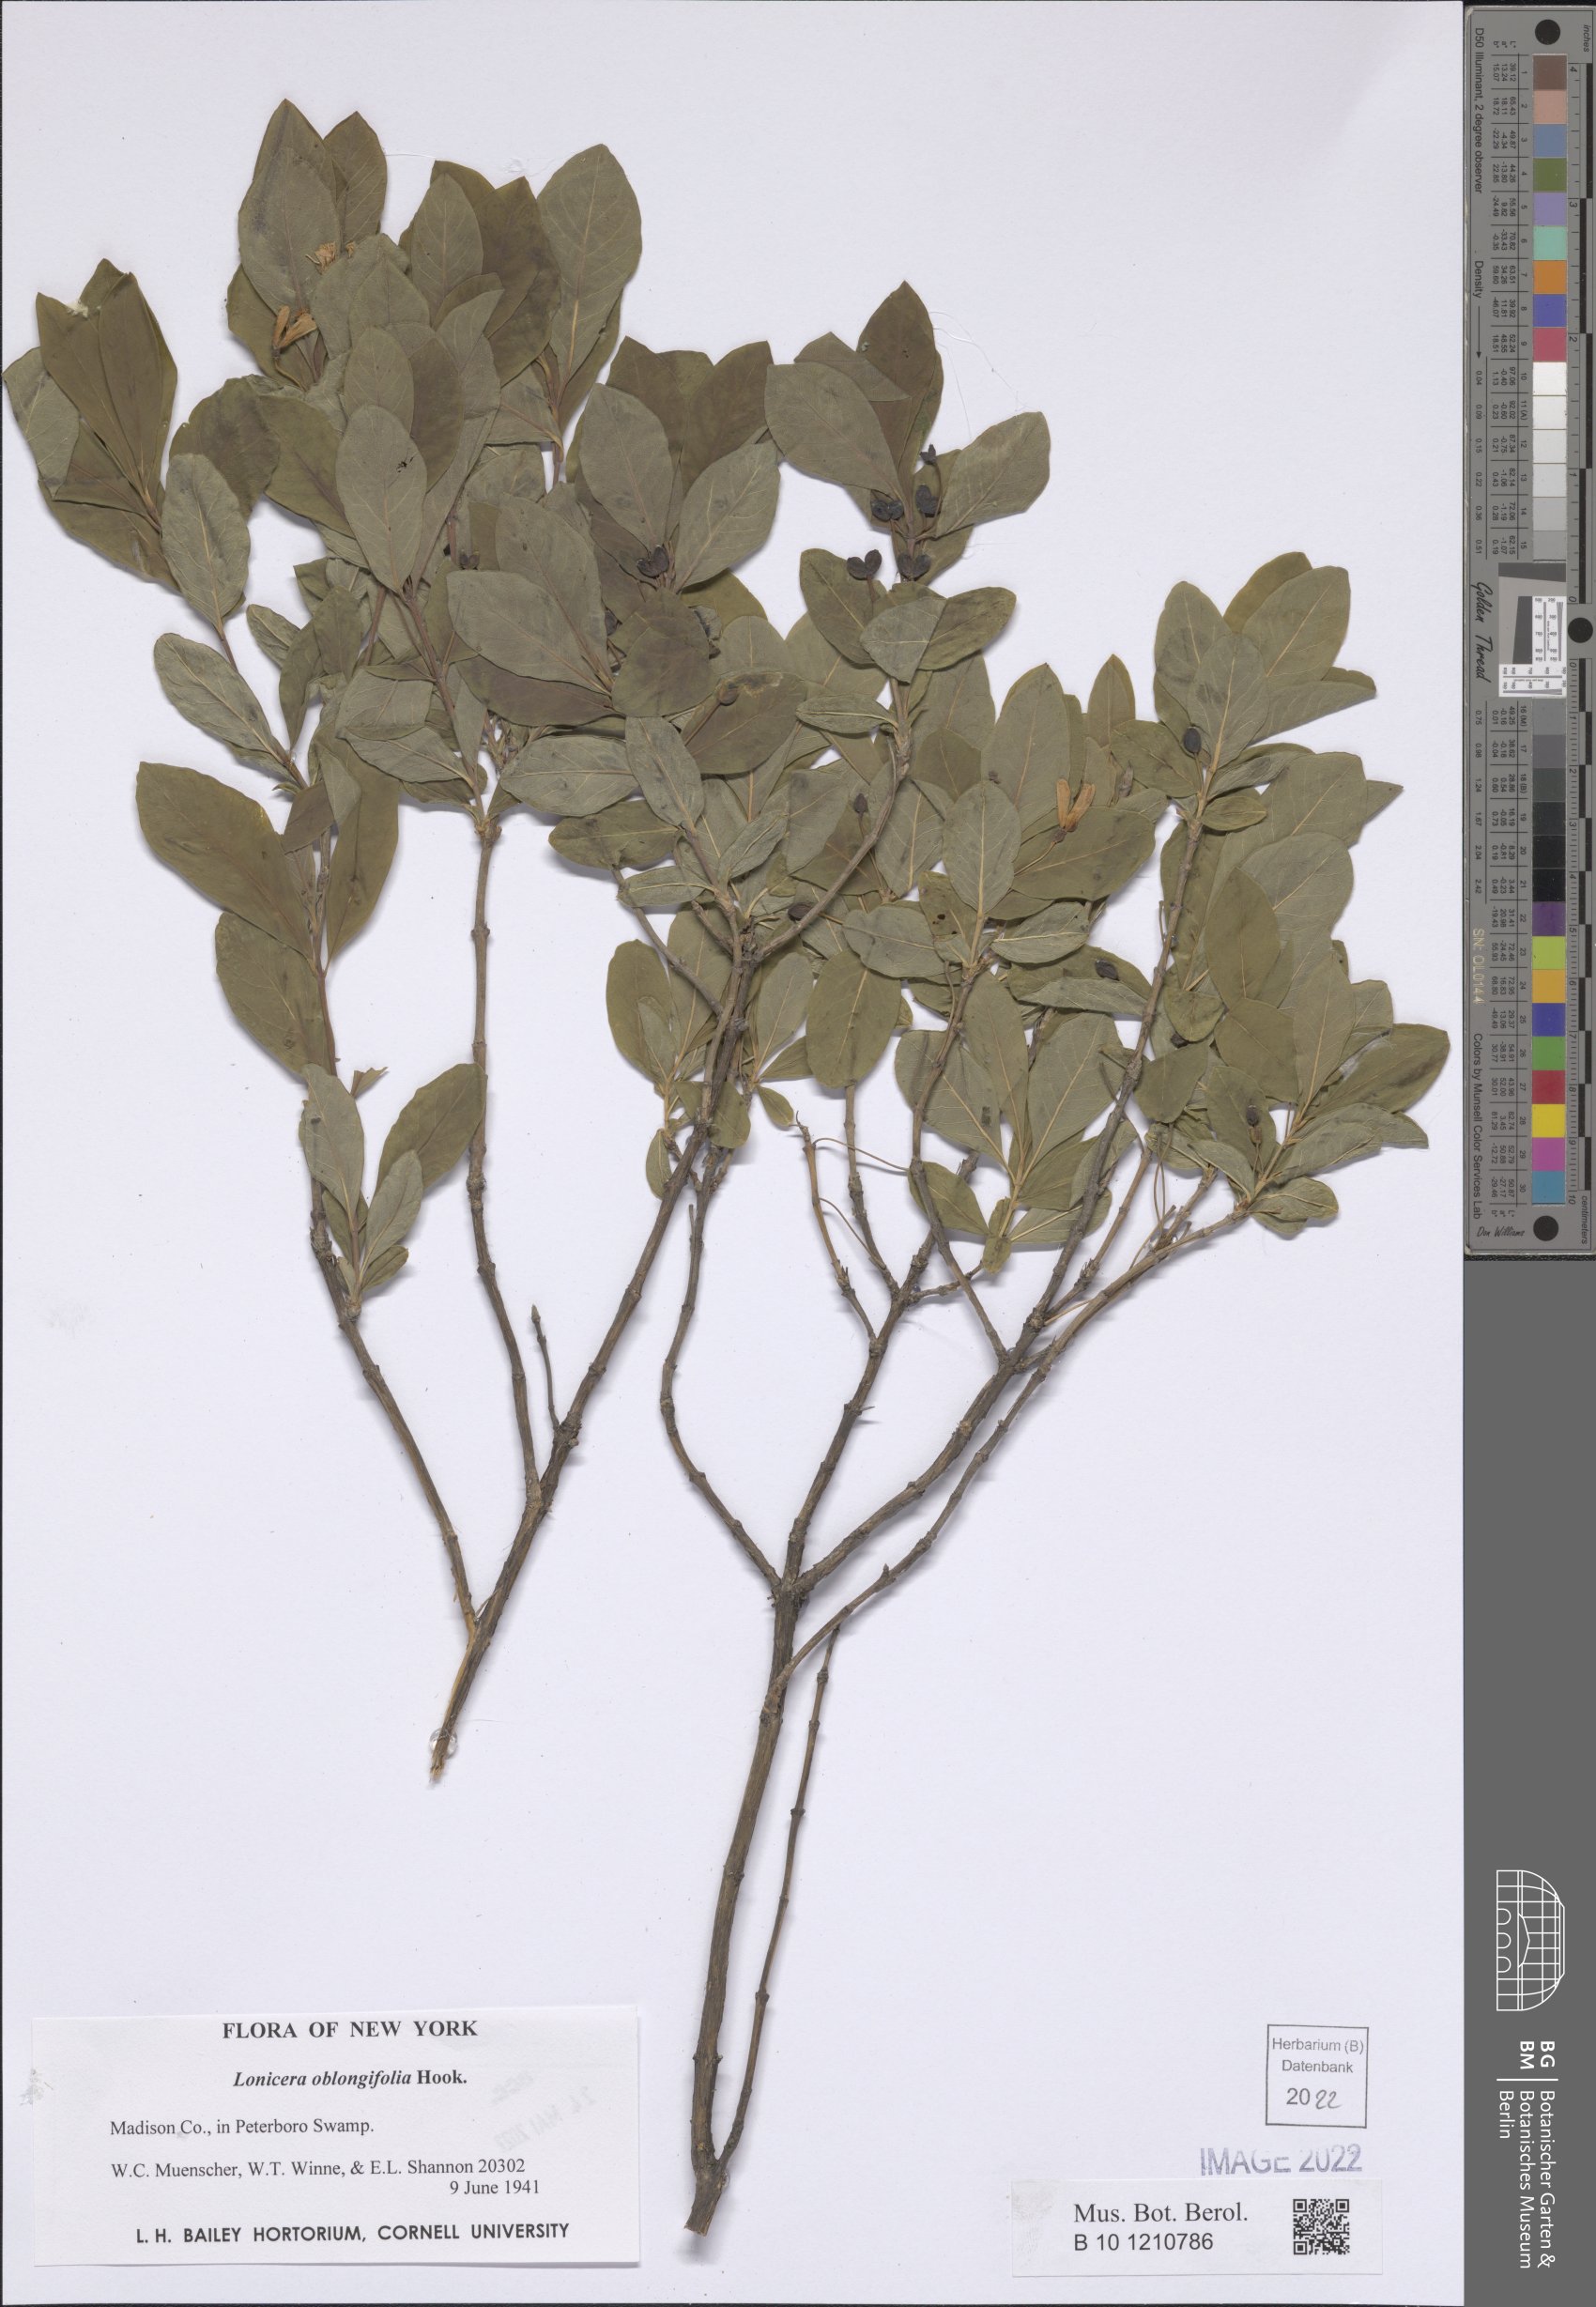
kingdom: Plantae
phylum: Tracheophyta
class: Magnoliopsida
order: Dipsacales
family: Caprifoliaceae
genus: Lonicera
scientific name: Lonicera oblongifolia
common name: Swamp fly honeysuckle
